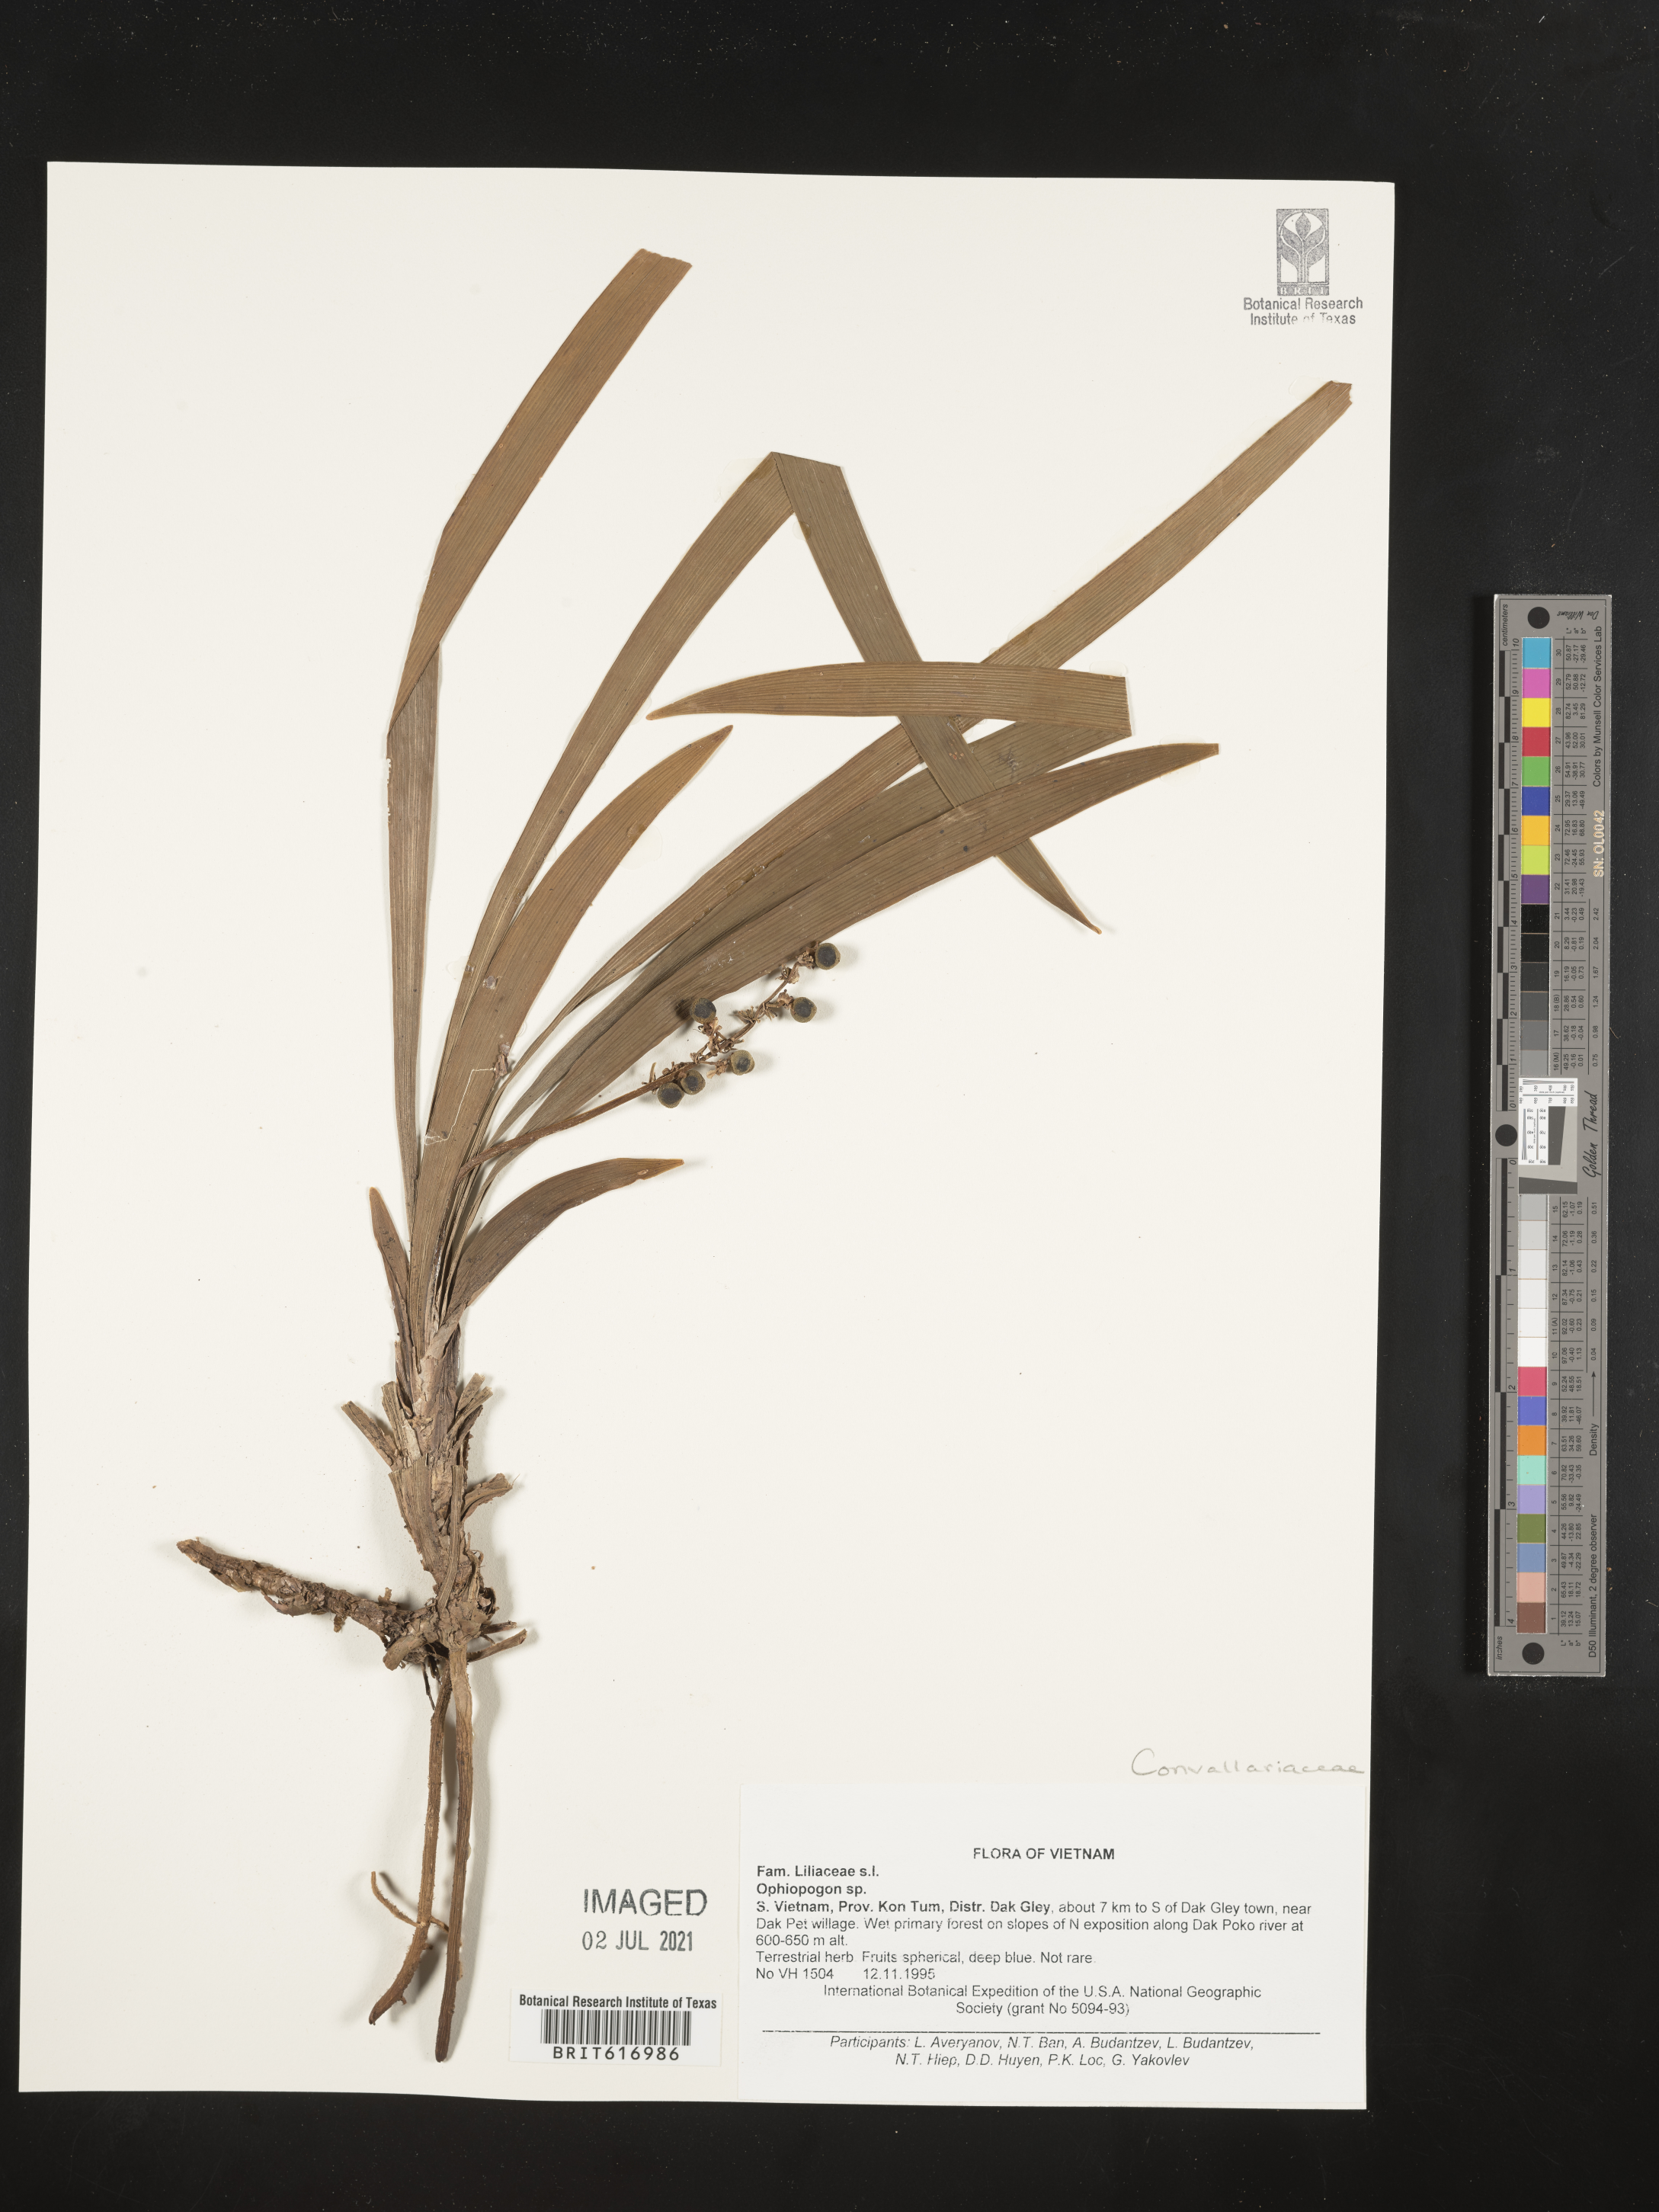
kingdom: Plantae
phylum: Tracheophyta
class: Liliopsida
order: Asparagales
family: Asparagaceae
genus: Ophiopogon
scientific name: Ophiopogon
